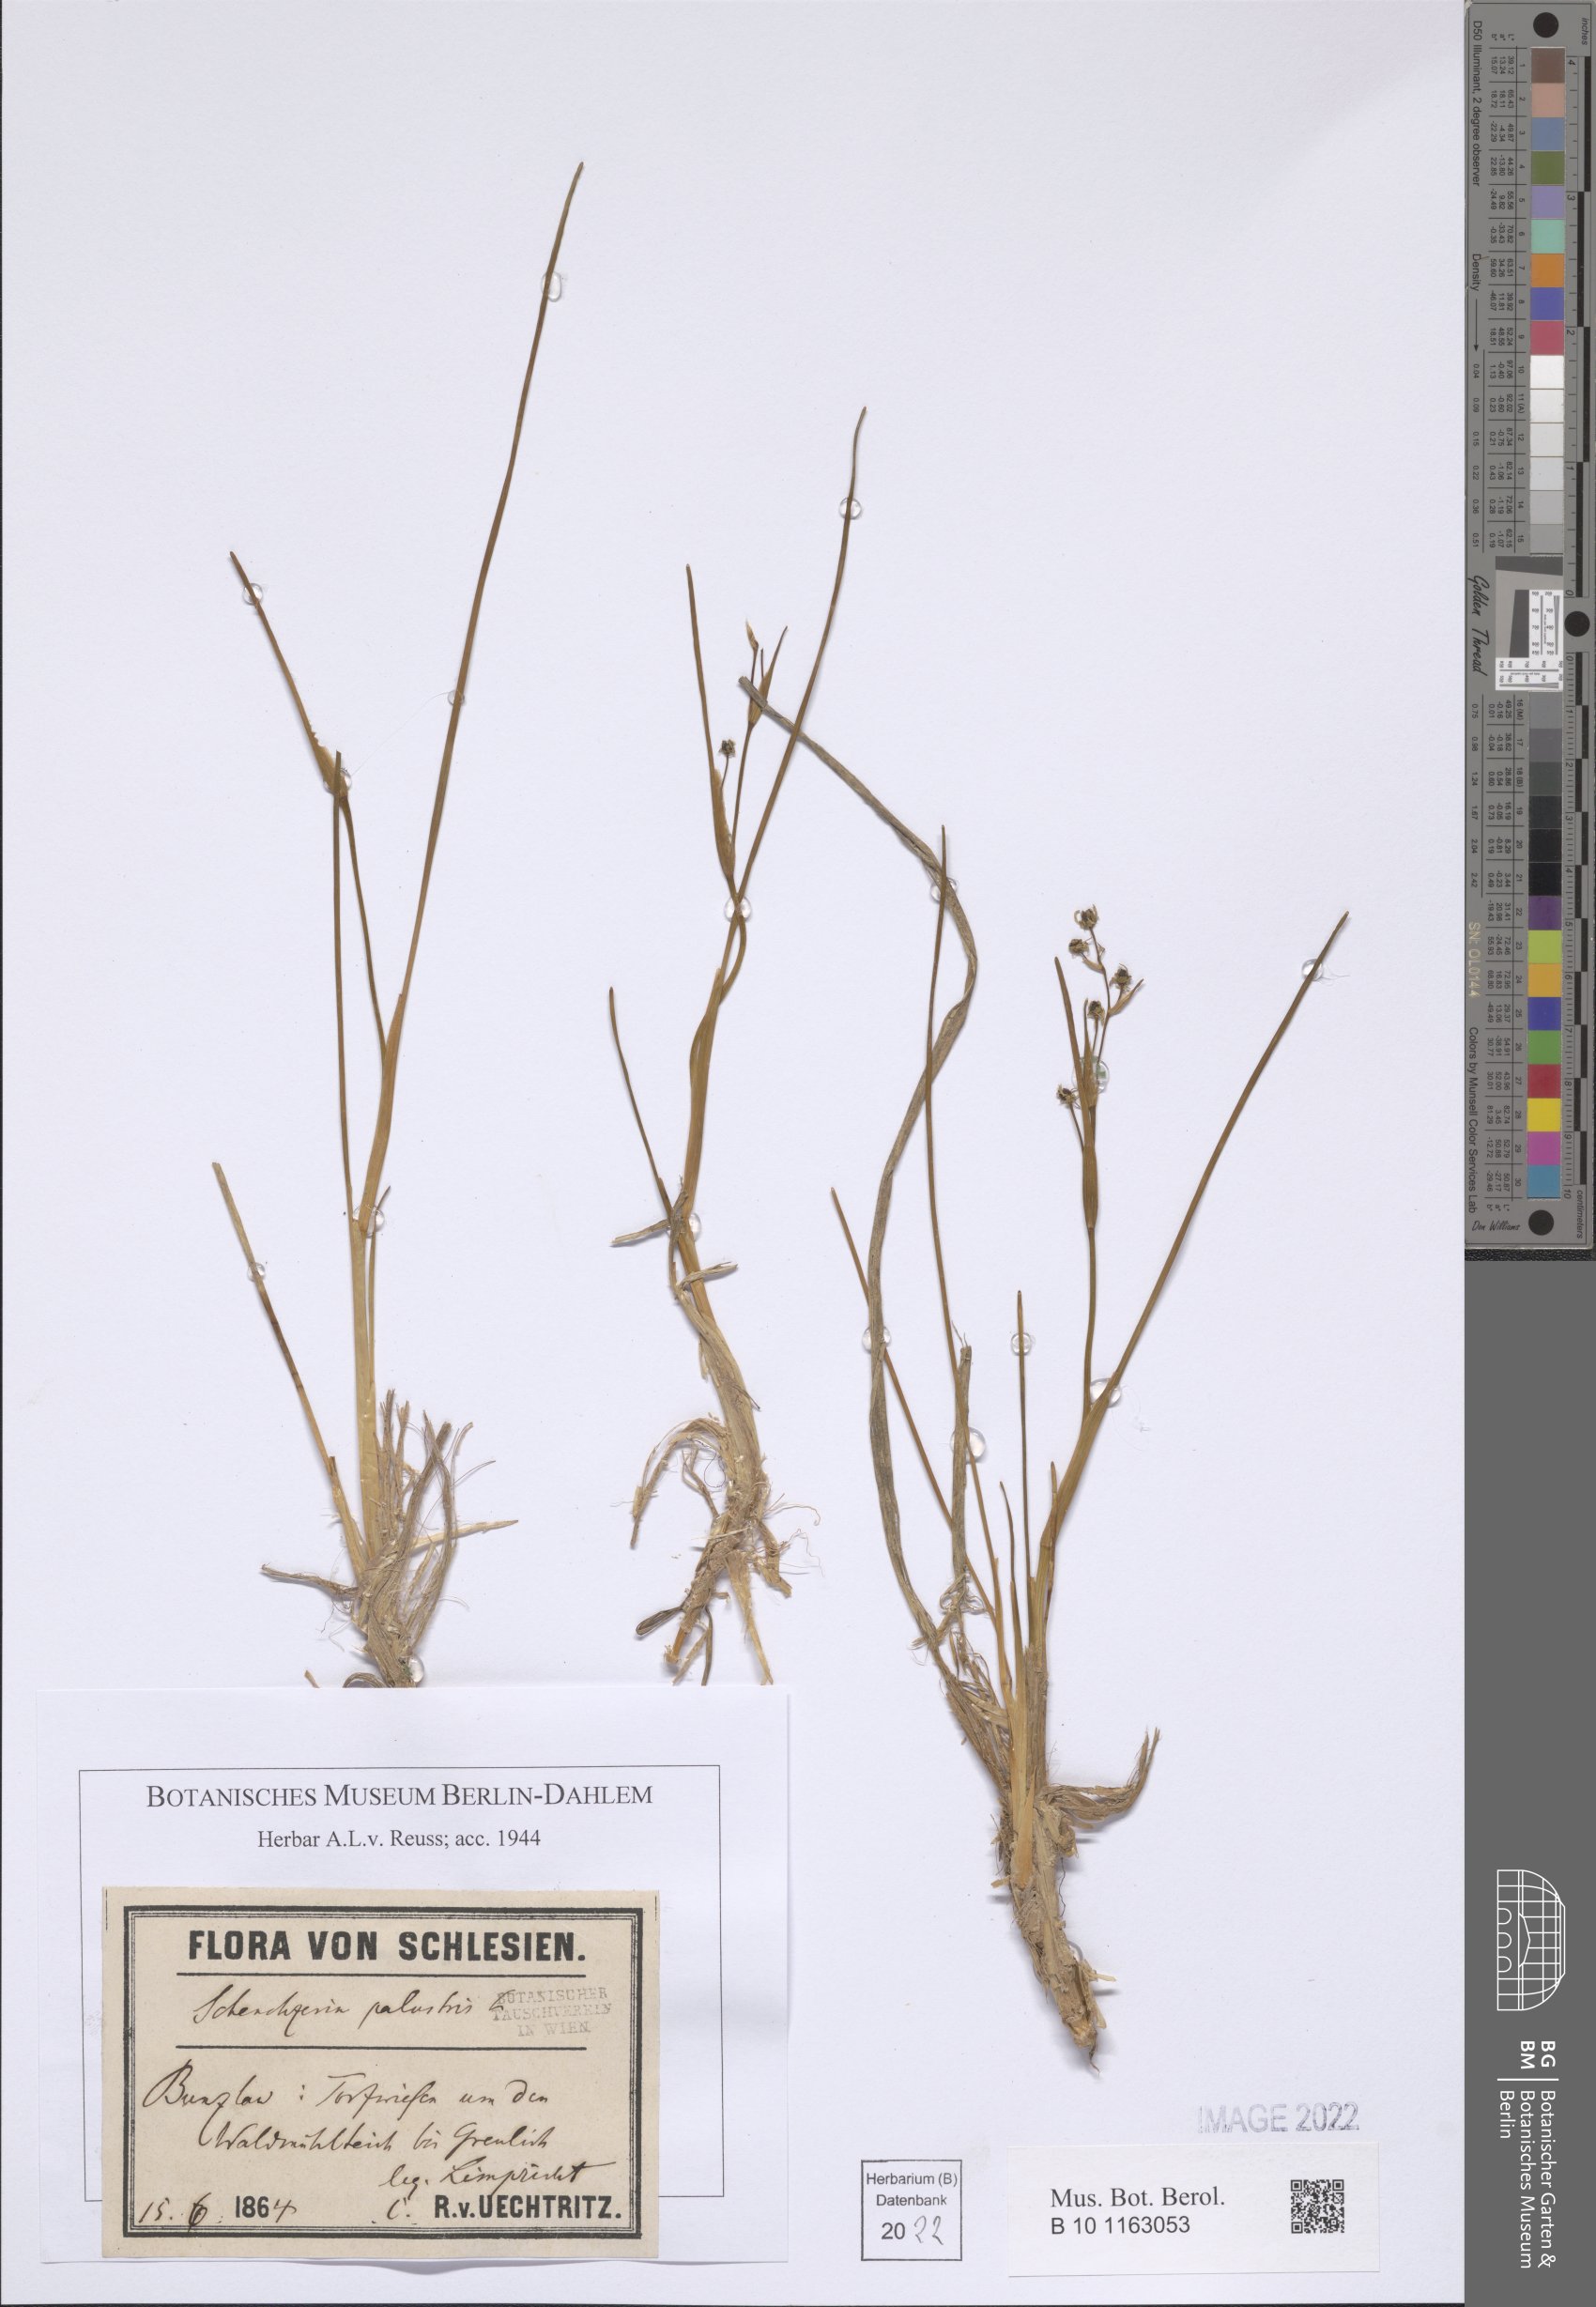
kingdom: Plantae
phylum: Tracheophyta
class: Liliopsida
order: Alismatales
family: Scheuchzeriaceae
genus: Scheuchzeria
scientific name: Scheuchzeria palustris
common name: Rannoch-rush
